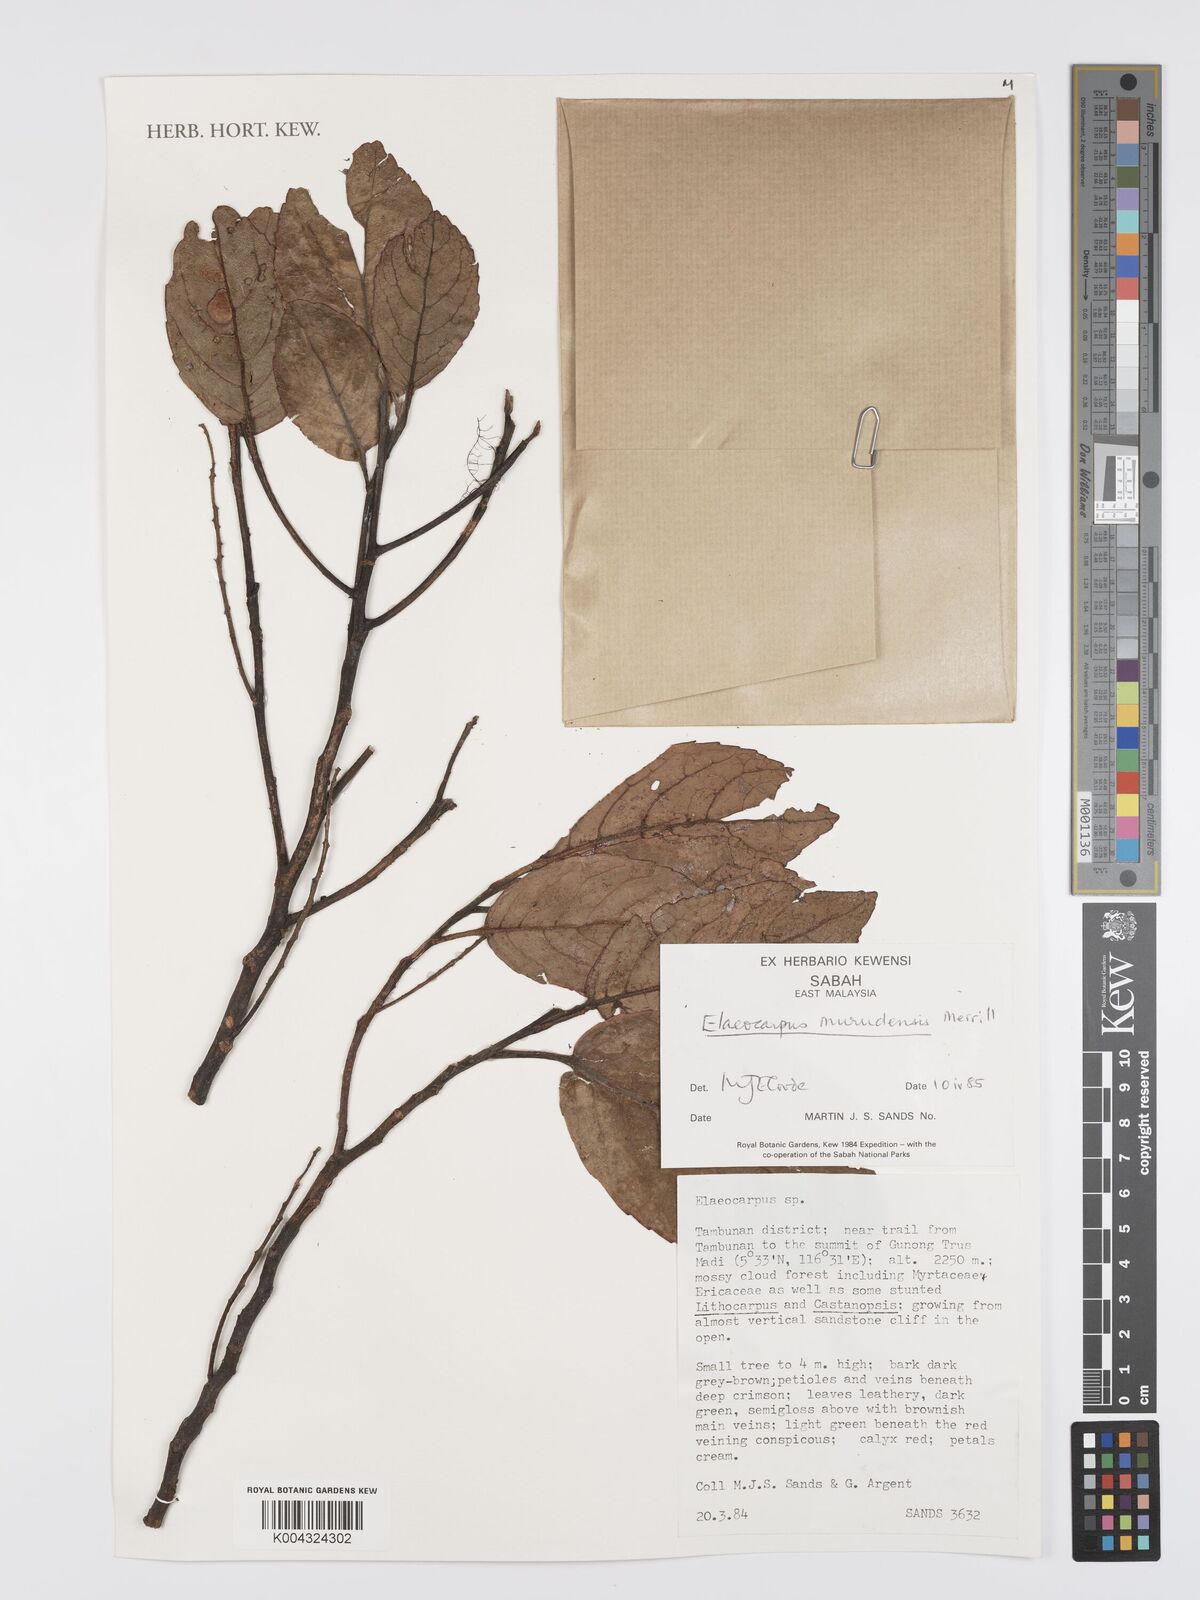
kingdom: Plantae
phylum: Tracheophyta
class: Magnoliopsida
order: Oxalidales
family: Elaeocarpaceae
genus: Elaeocarpus
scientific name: Elaeocarpus murudensis
